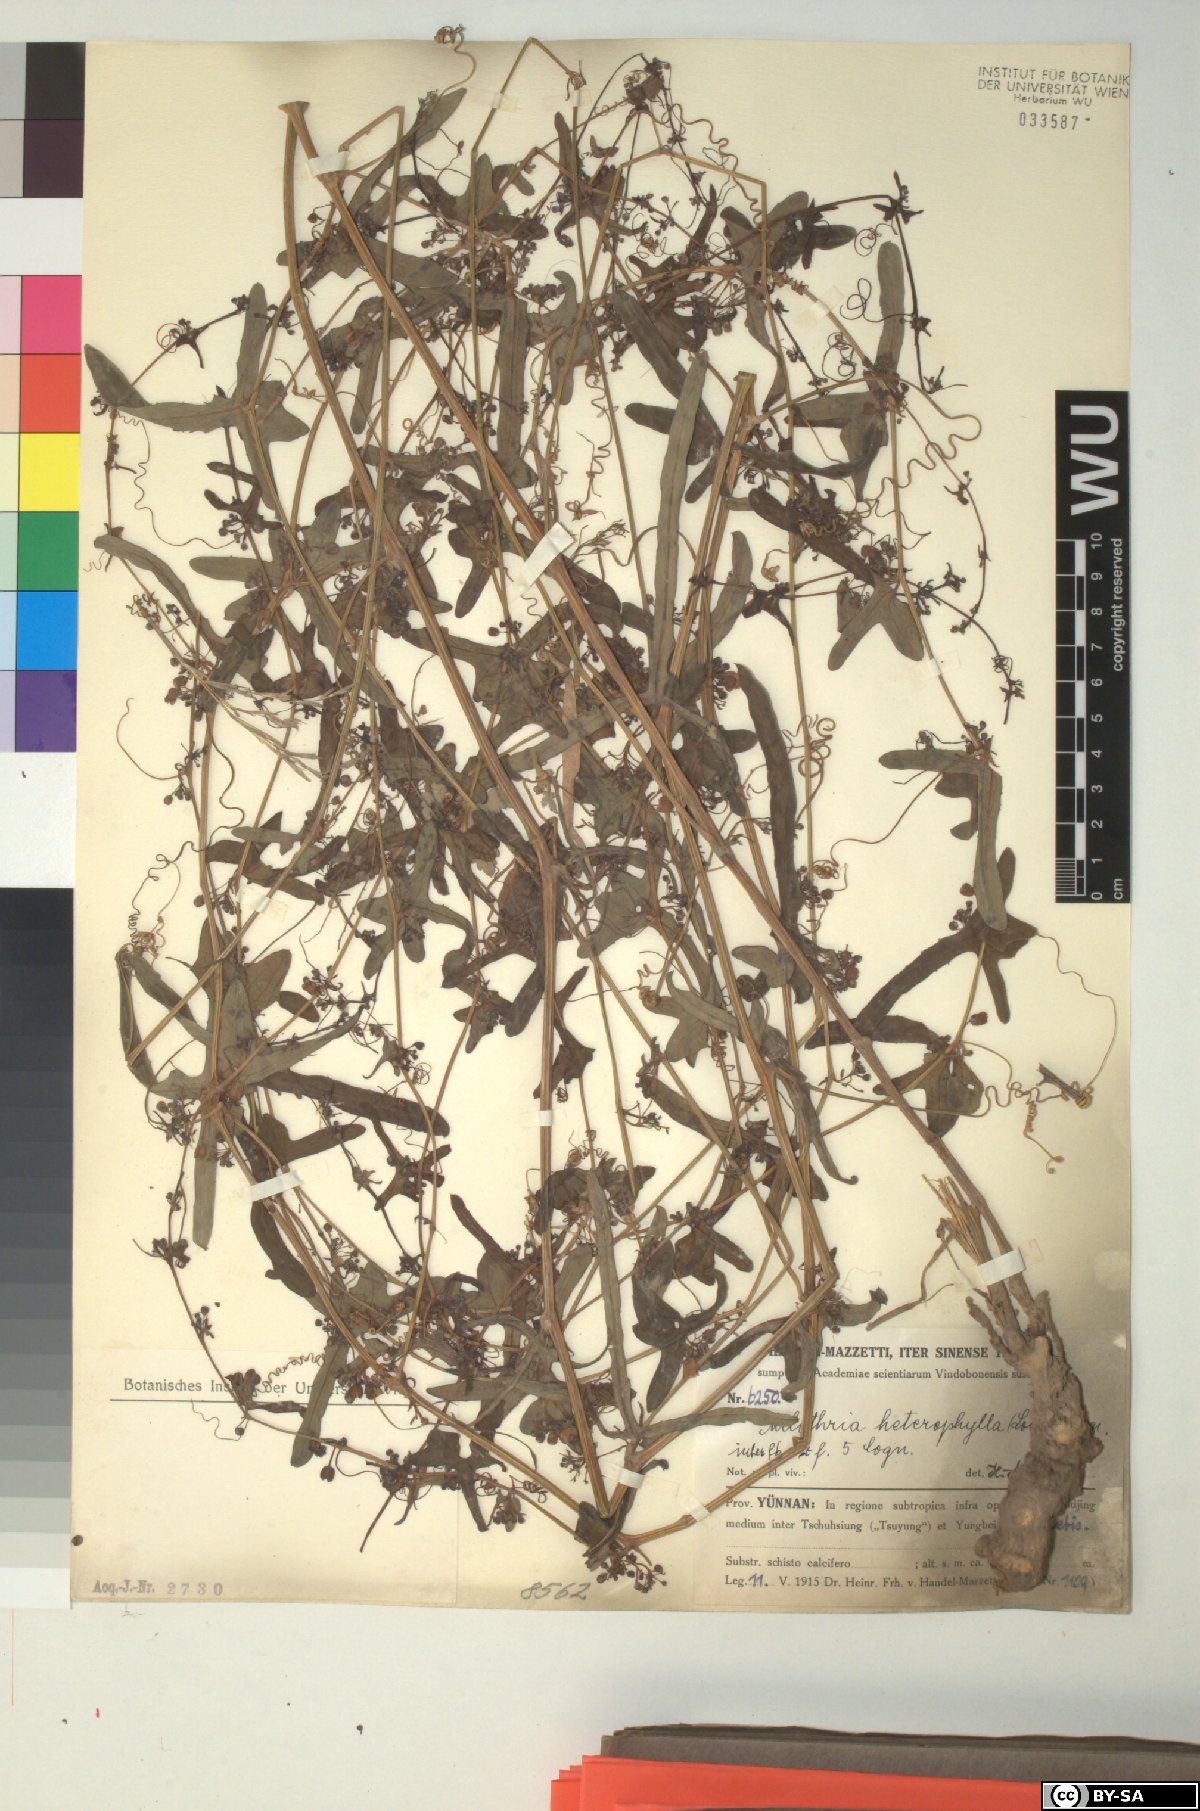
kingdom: Plantae
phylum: Tracheophyta
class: Magnoliopsida
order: Cucurbitales
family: Cucurbitaceae
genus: Melothria
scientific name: Melothria trilobata
